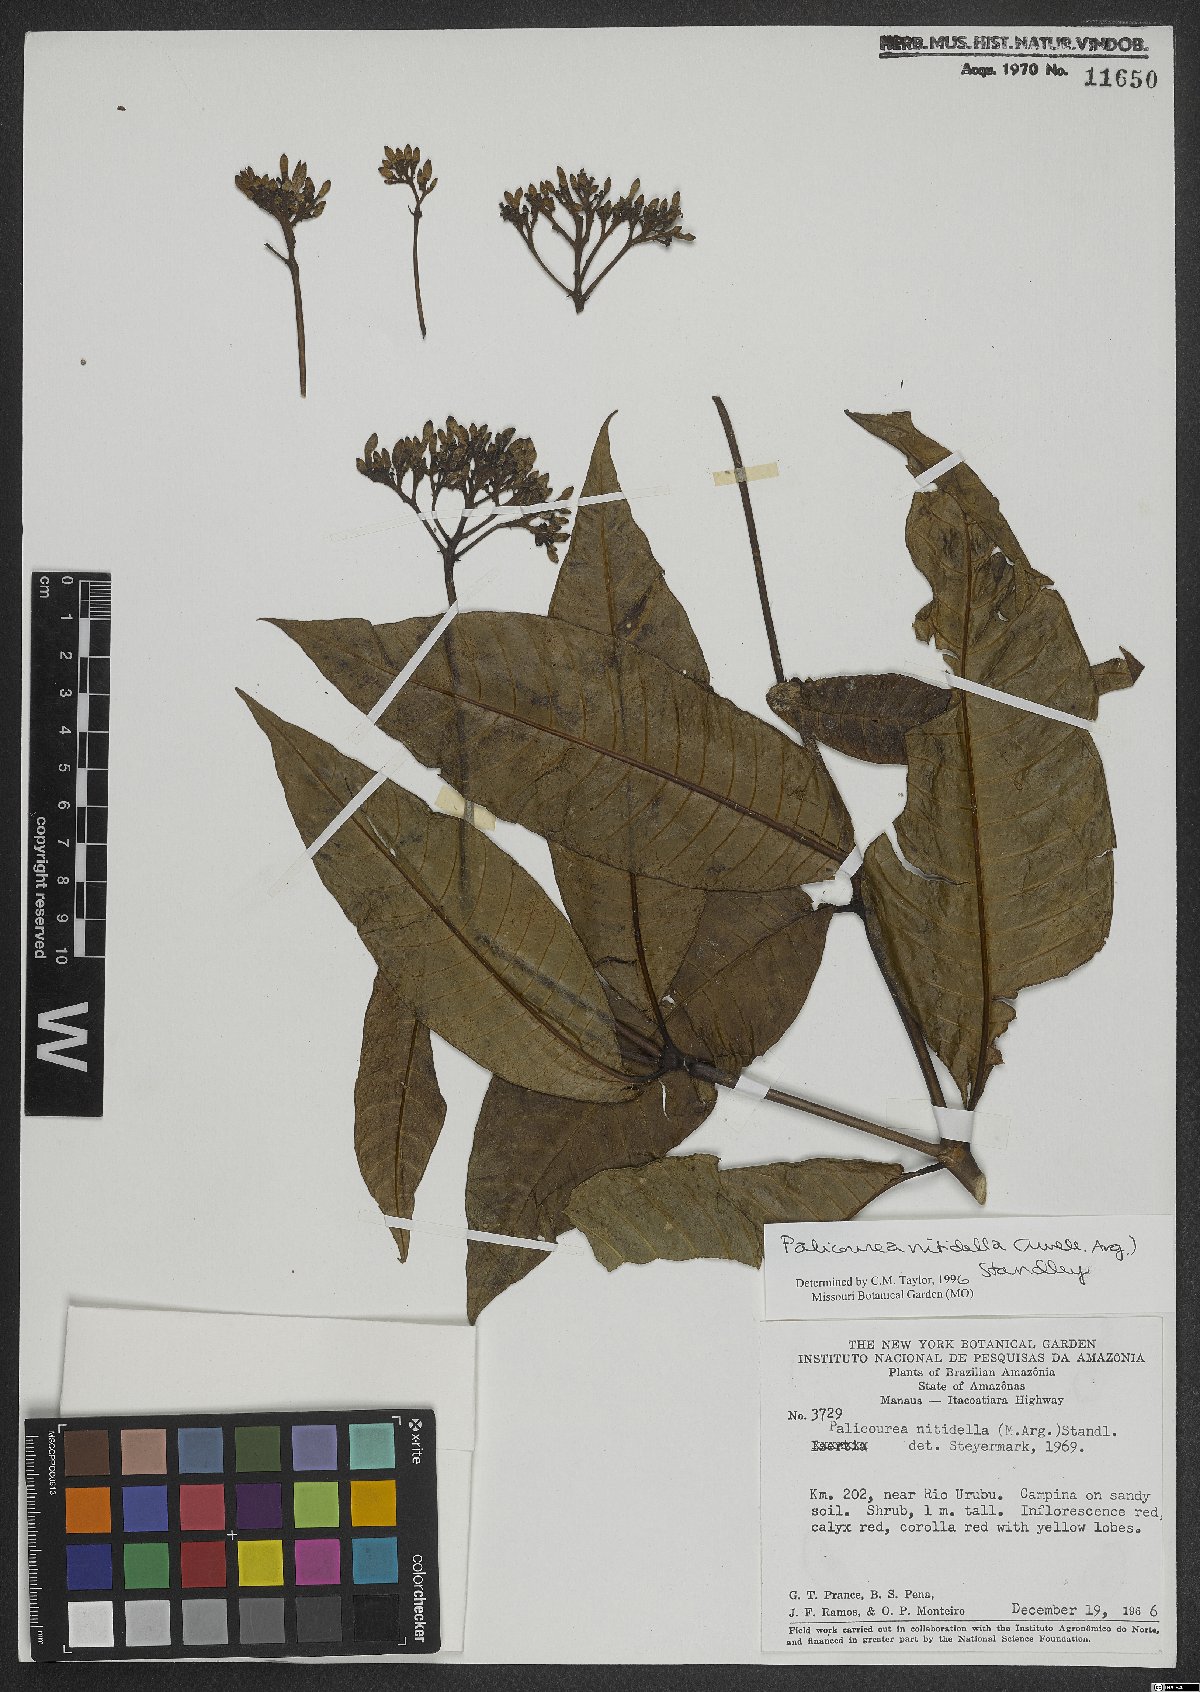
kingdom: Plantae
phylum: Tracheophyta
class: Magnoliopsida
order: Gentianales
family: Rubiaceae
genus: Palicourea
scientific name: Palicourea nitidella
